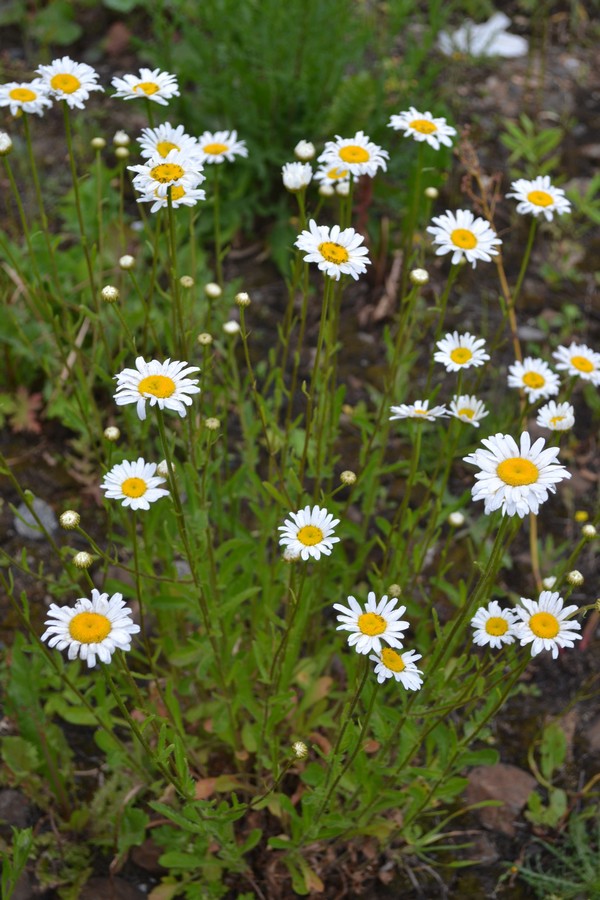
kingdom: Plantae
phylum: Tracheophyta
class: Magnoliopsida
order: Asterales
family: Asteraceae
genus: Leucanthemum
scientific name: Leucanthemum vulgare
